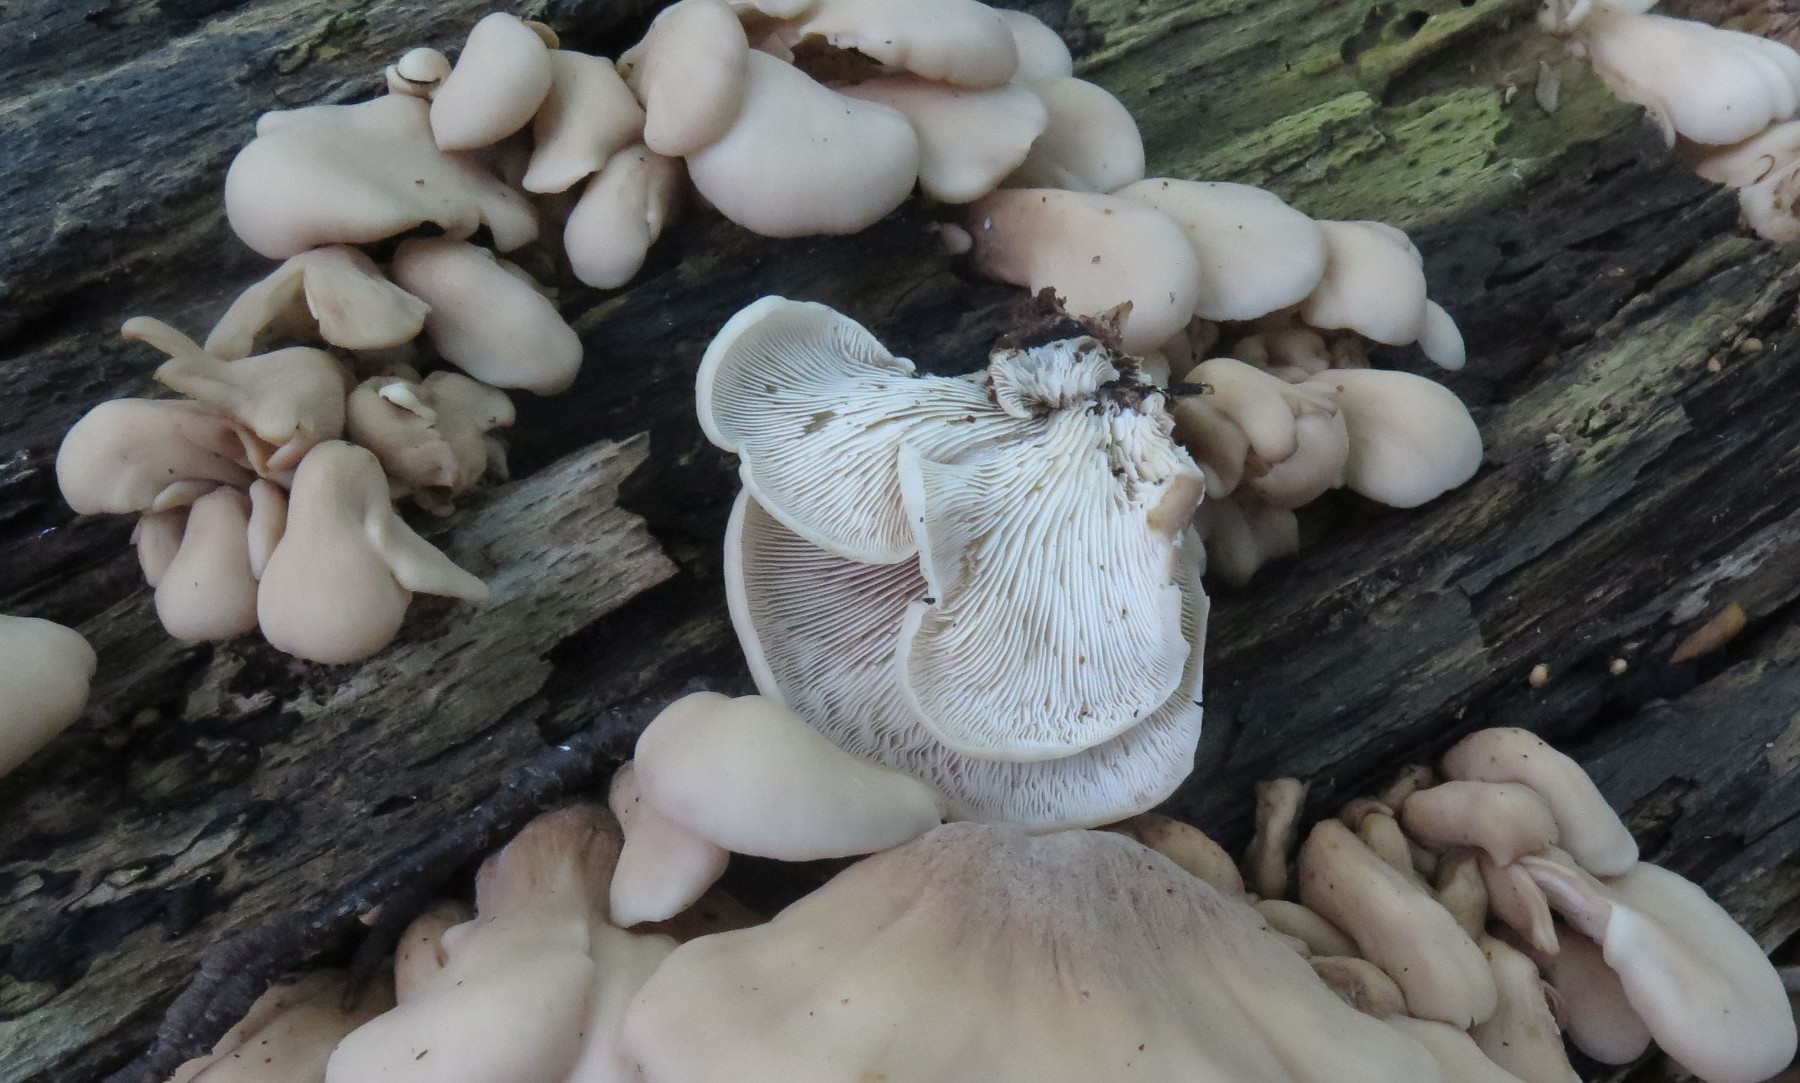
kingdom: Fungi
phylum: Basidiomycota
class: Agaricomycetes
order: Agaricales
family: Pleurotaceae
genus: Pleurotus
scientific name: Pleurotus pulmonarius
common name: sommer-østershat
